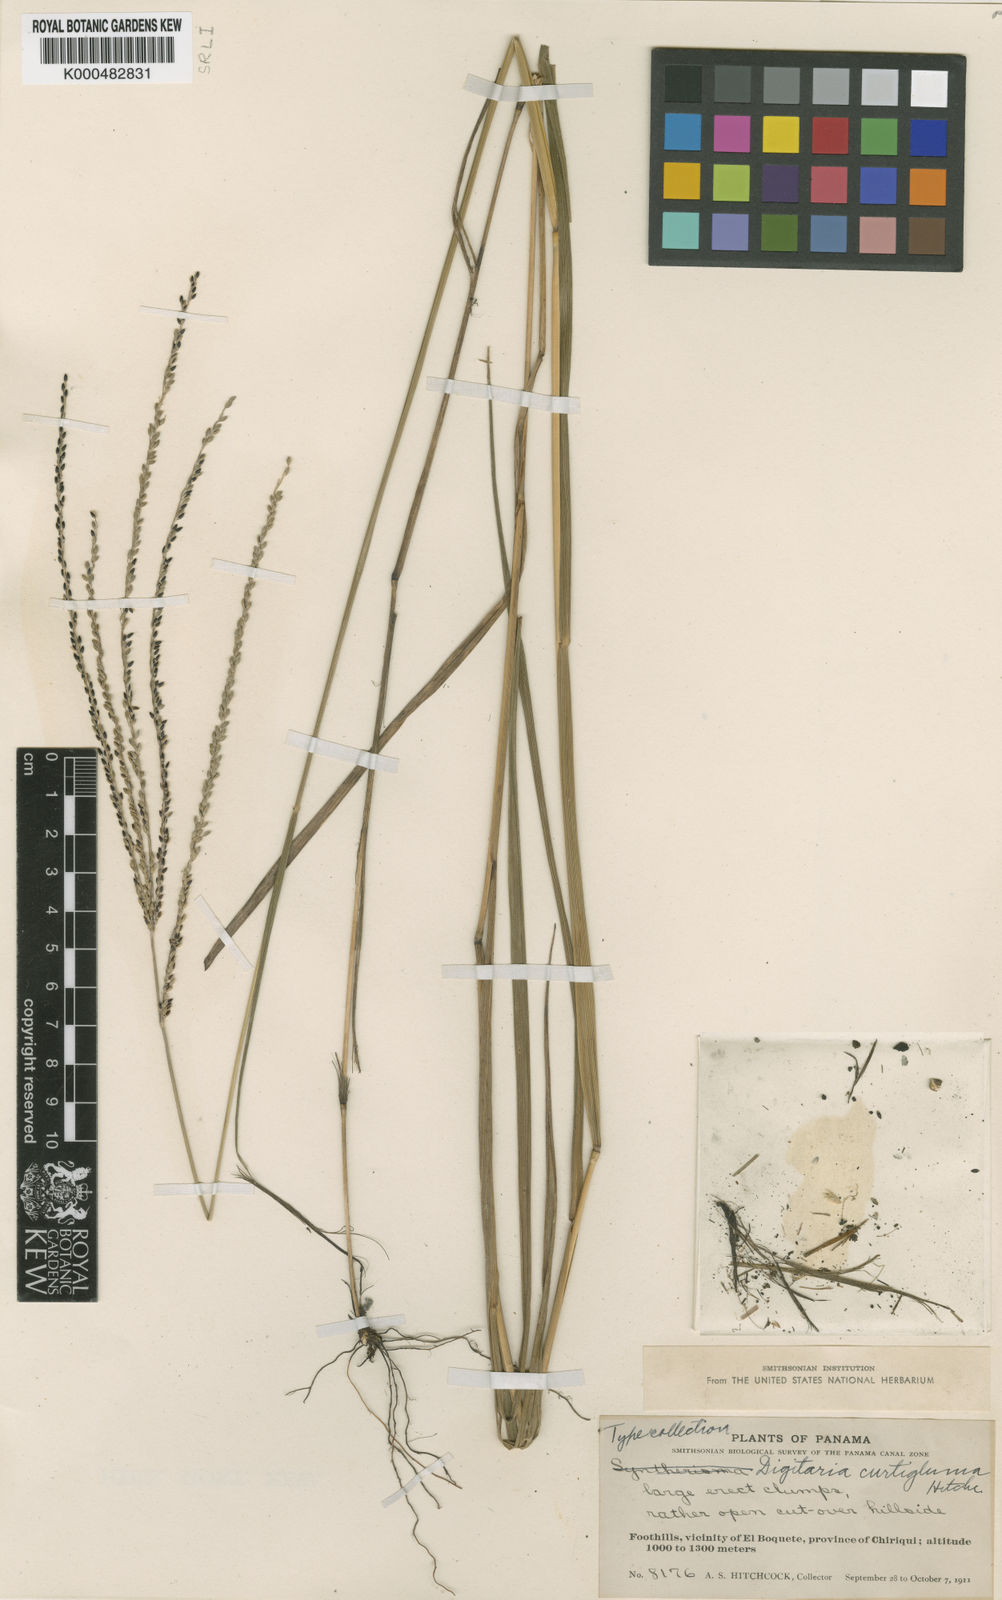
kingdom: Plantae
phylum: Tracheophyta
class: Liliopsida
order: Poales
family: Poaceae
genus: Digitaria
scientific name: Digitaria curtigluma
